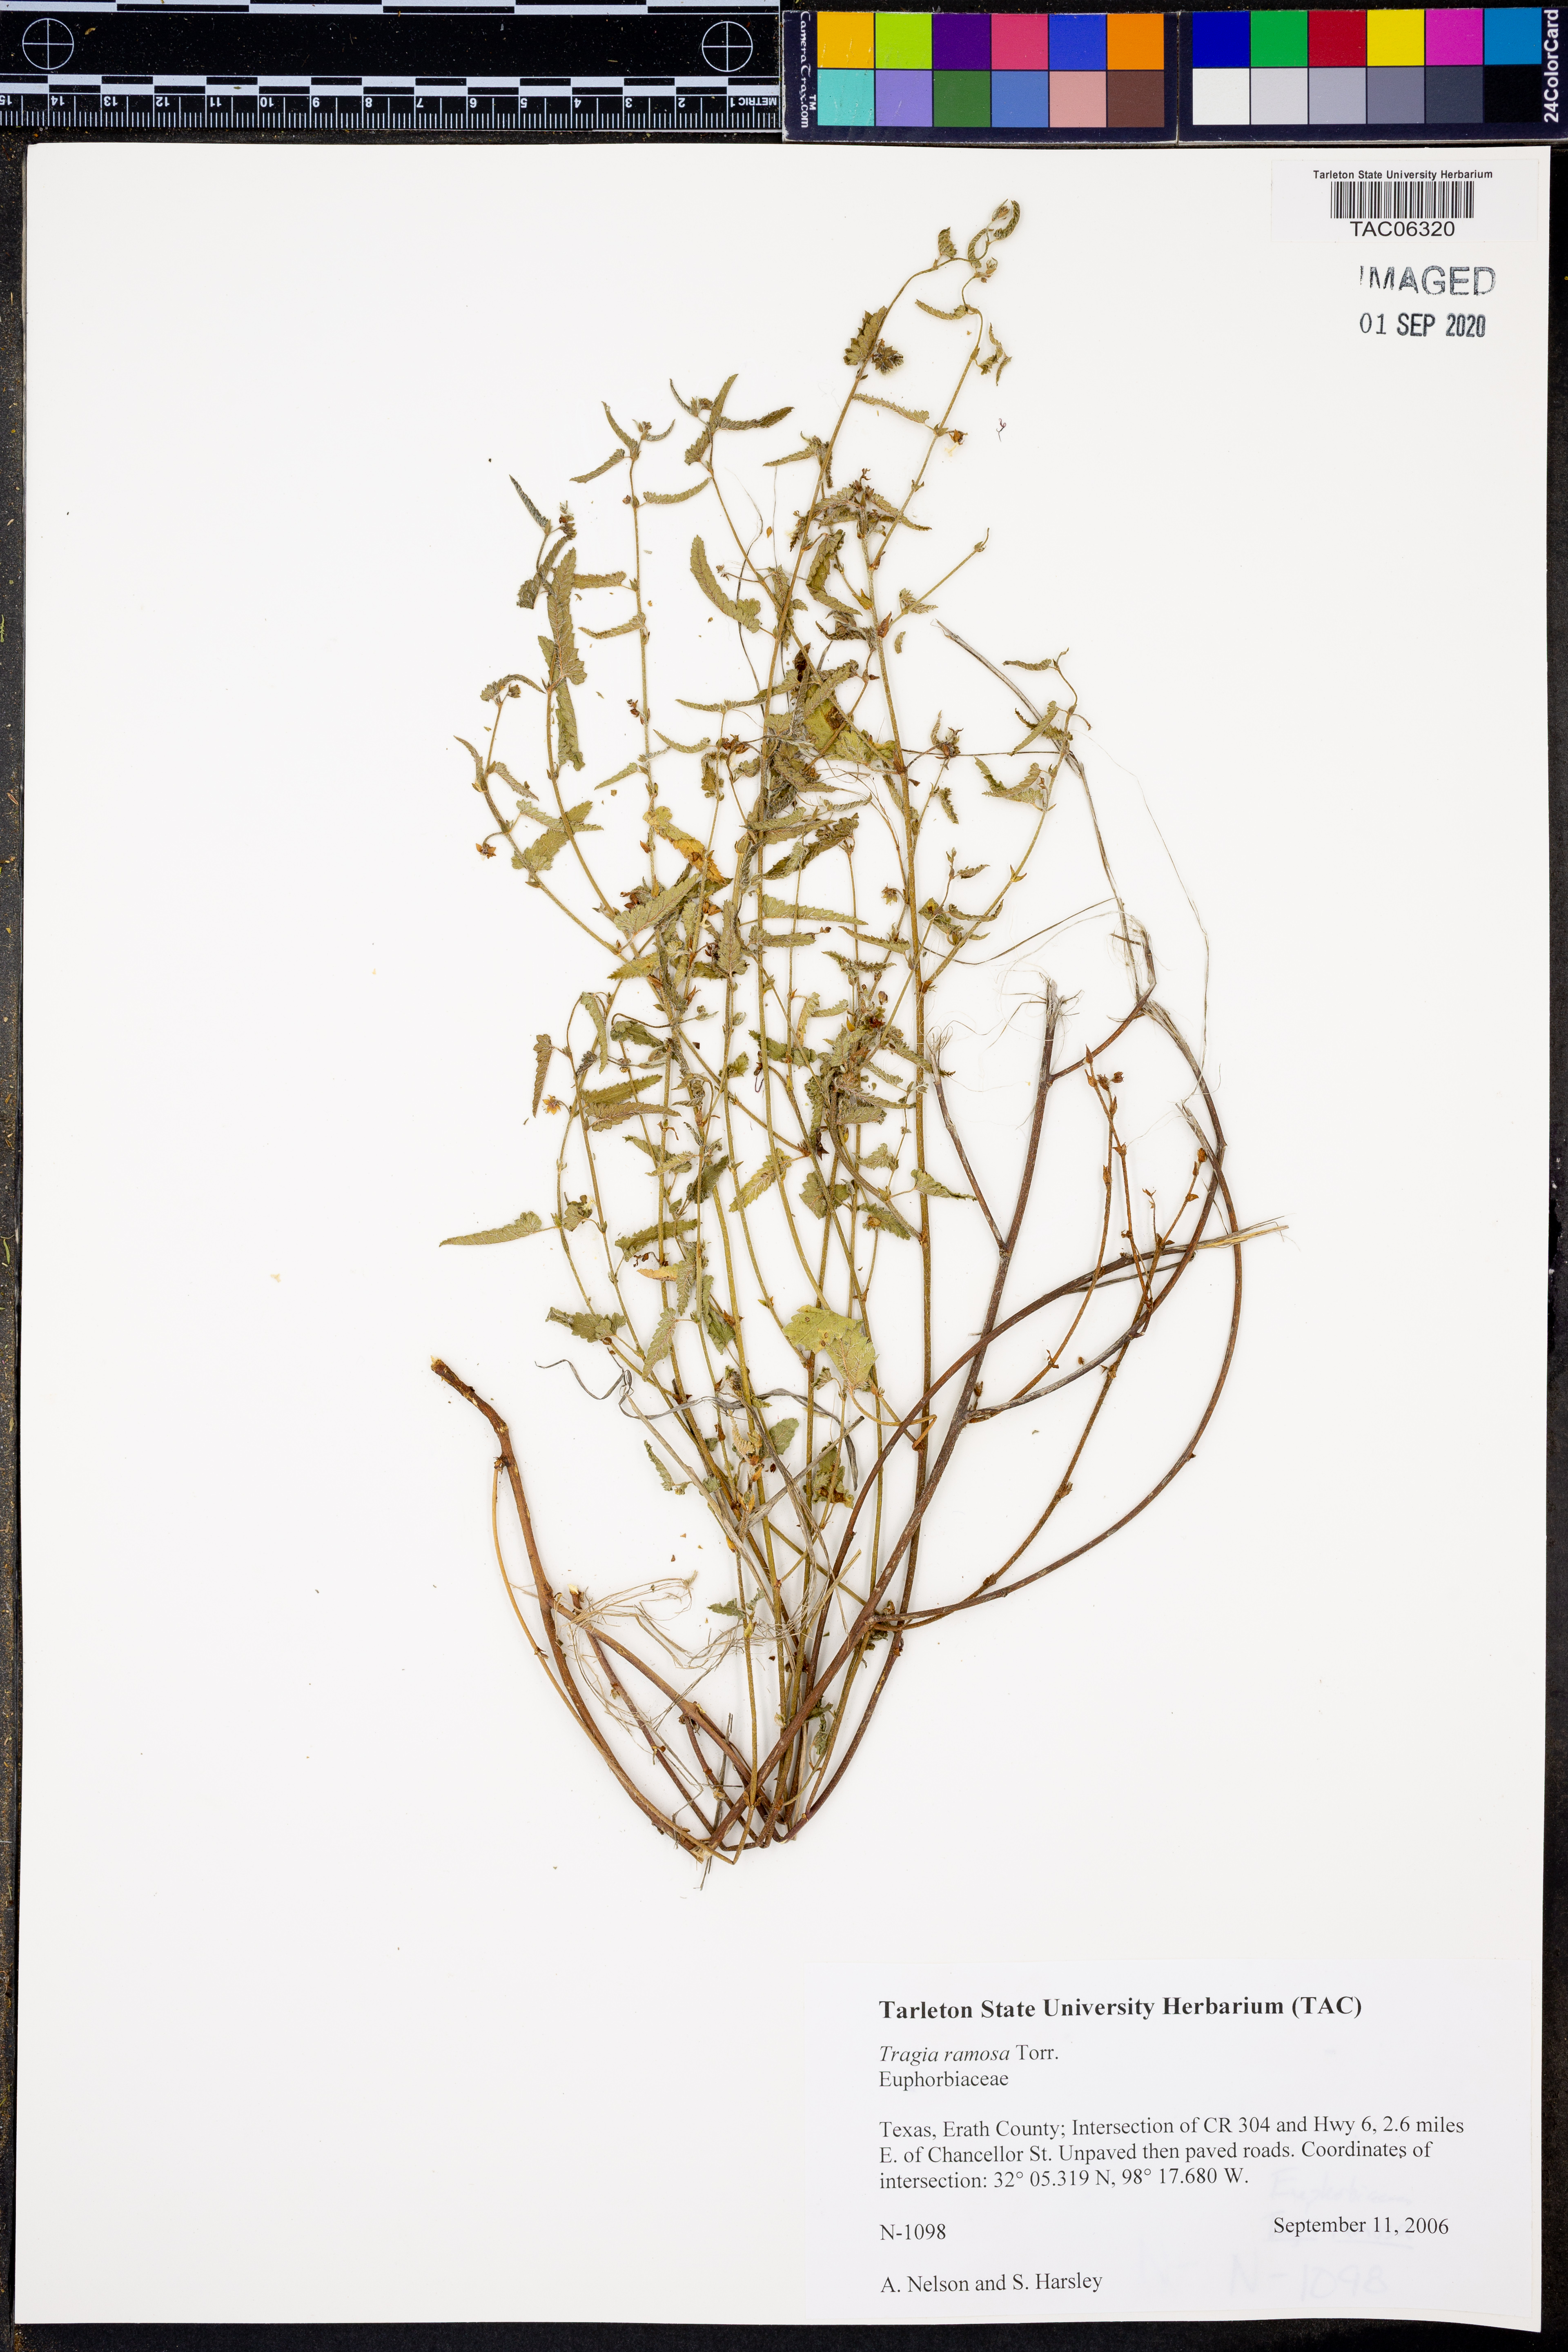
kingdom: Plantae
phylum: Tracheophyta
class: Magnoliopsida
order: Malpighiales
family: Euphorbiaceae
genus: Tragia
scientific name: Tragia ramosa
